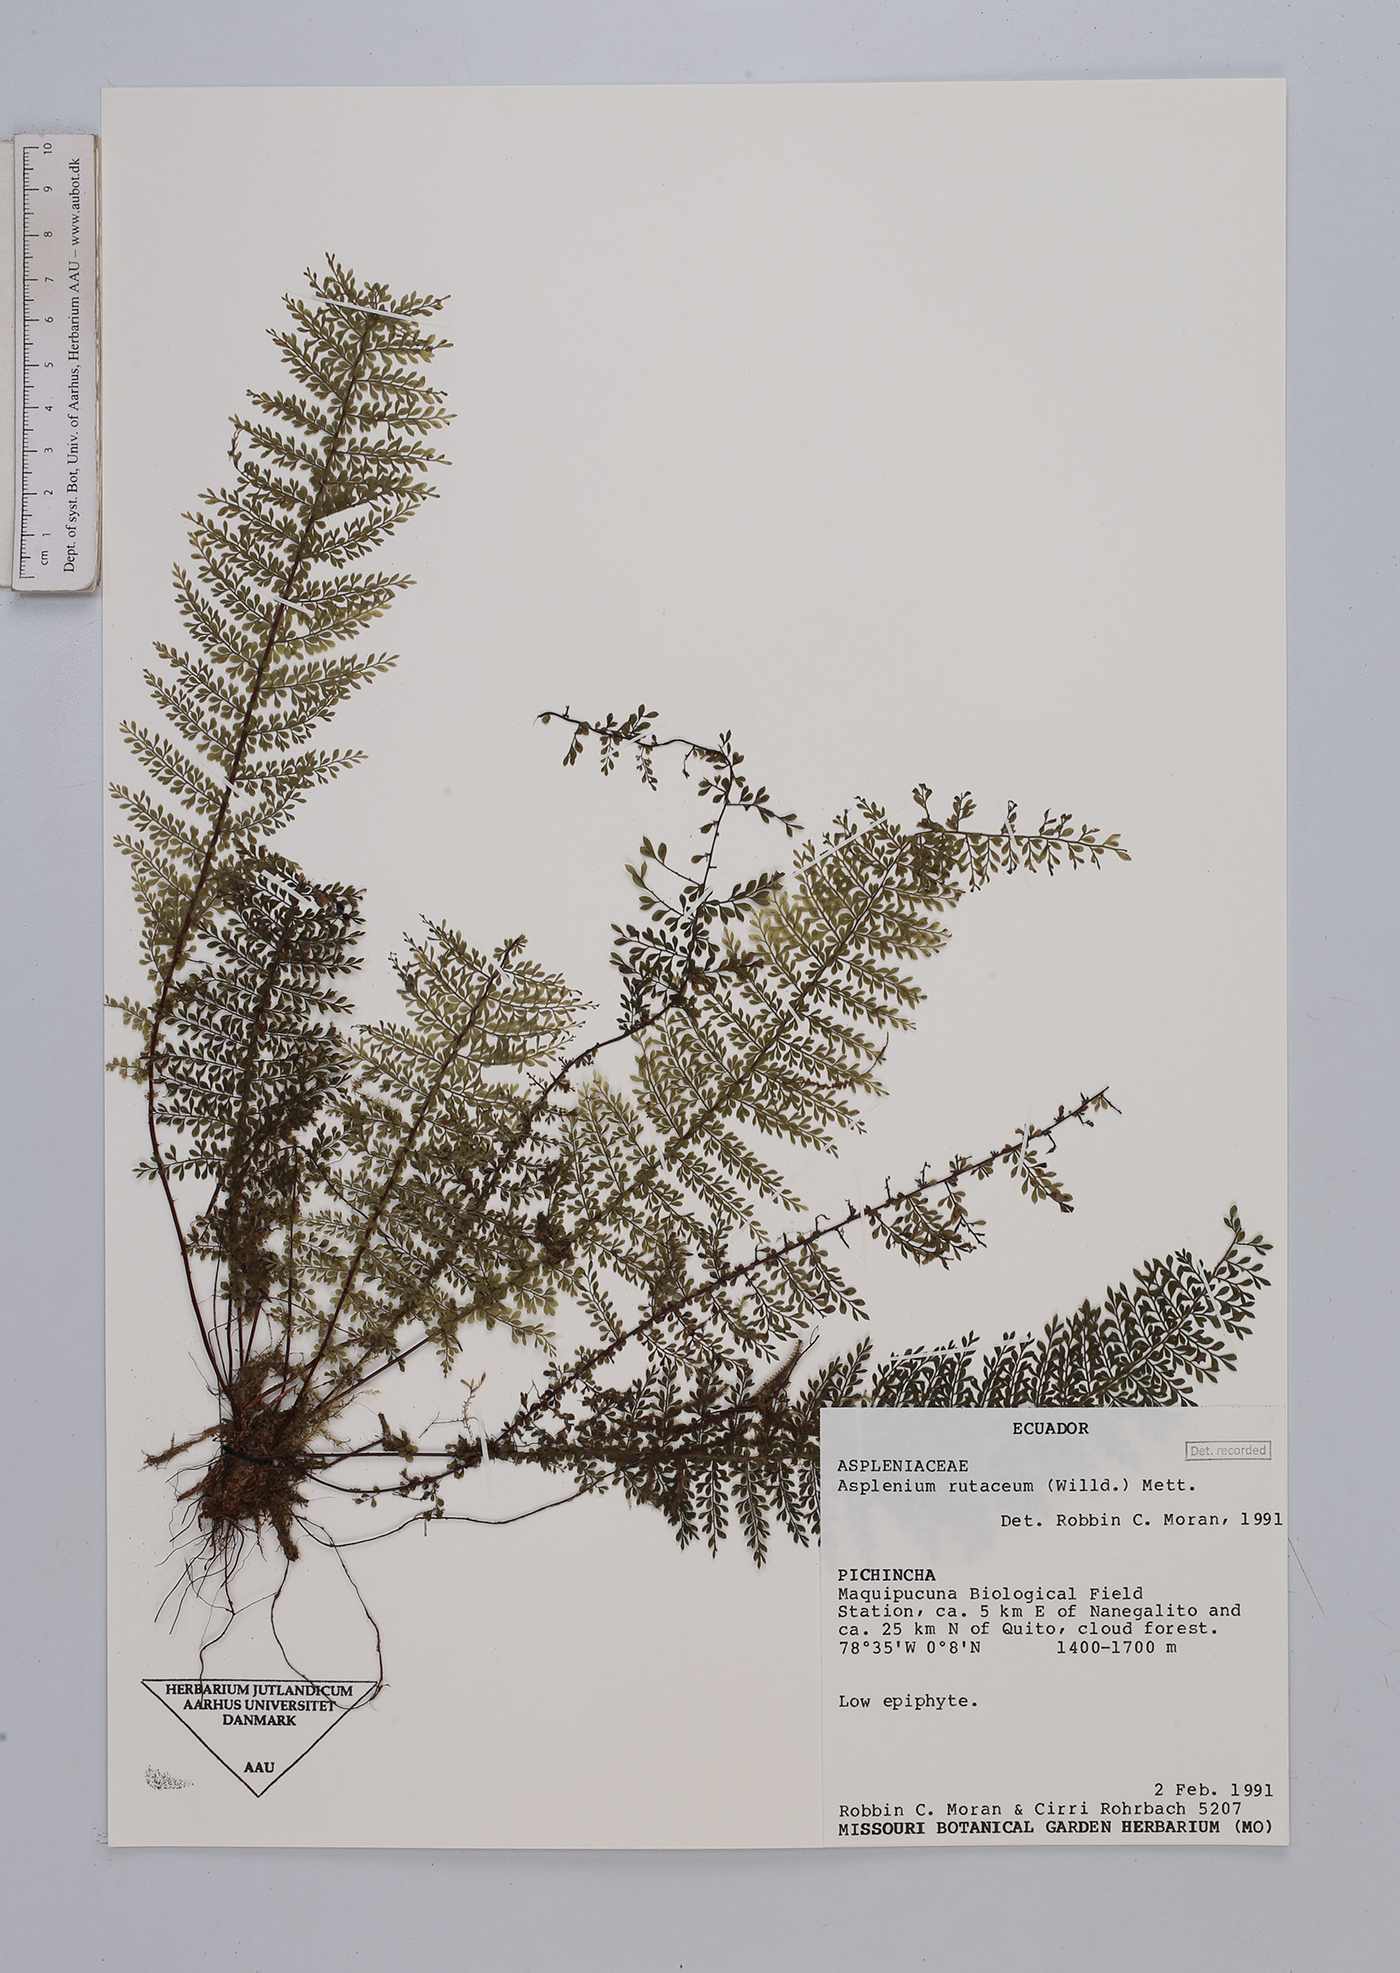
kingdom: Plantae
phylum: Tracheophyta
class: Polypodiopsida
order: Polypodiales
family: Aspleniaceae
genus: Asplenium
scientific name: Asplenium rutaceum
